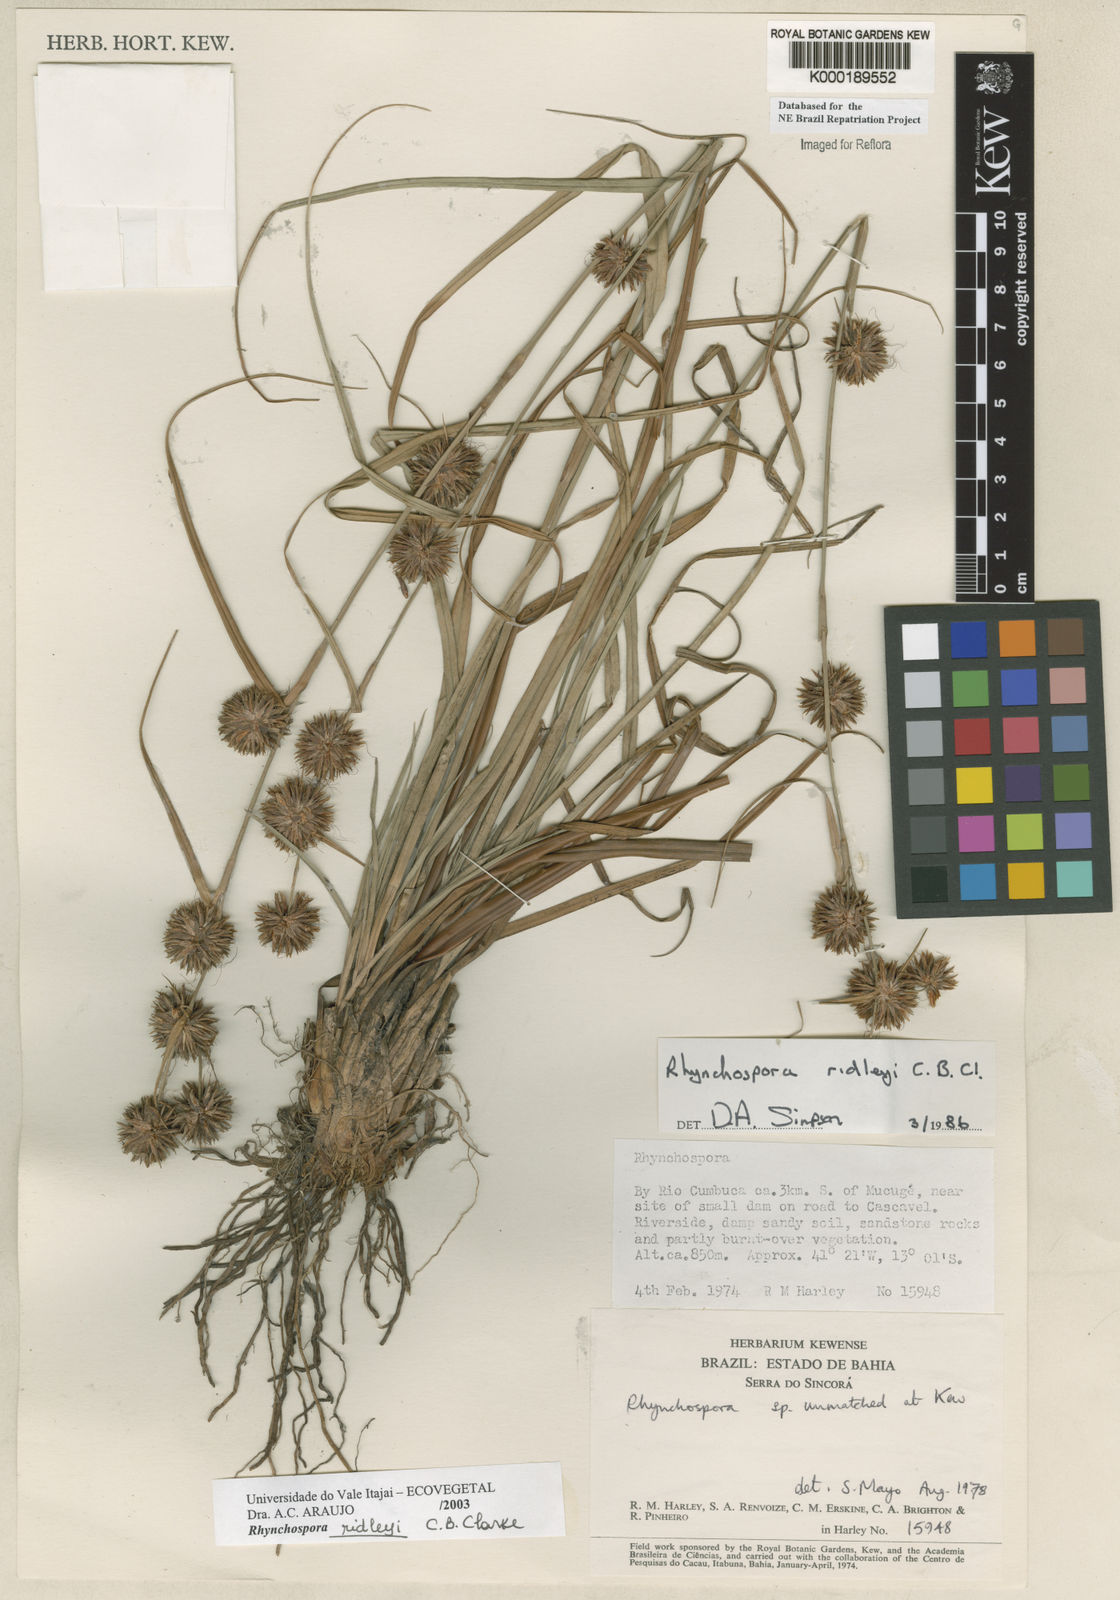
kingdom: Plantae
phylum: Tracheophyta
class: Liliopsida
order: Poales
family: Cyperaceae
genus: Rhynchospora
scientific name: Rhynchospora ridleyi
